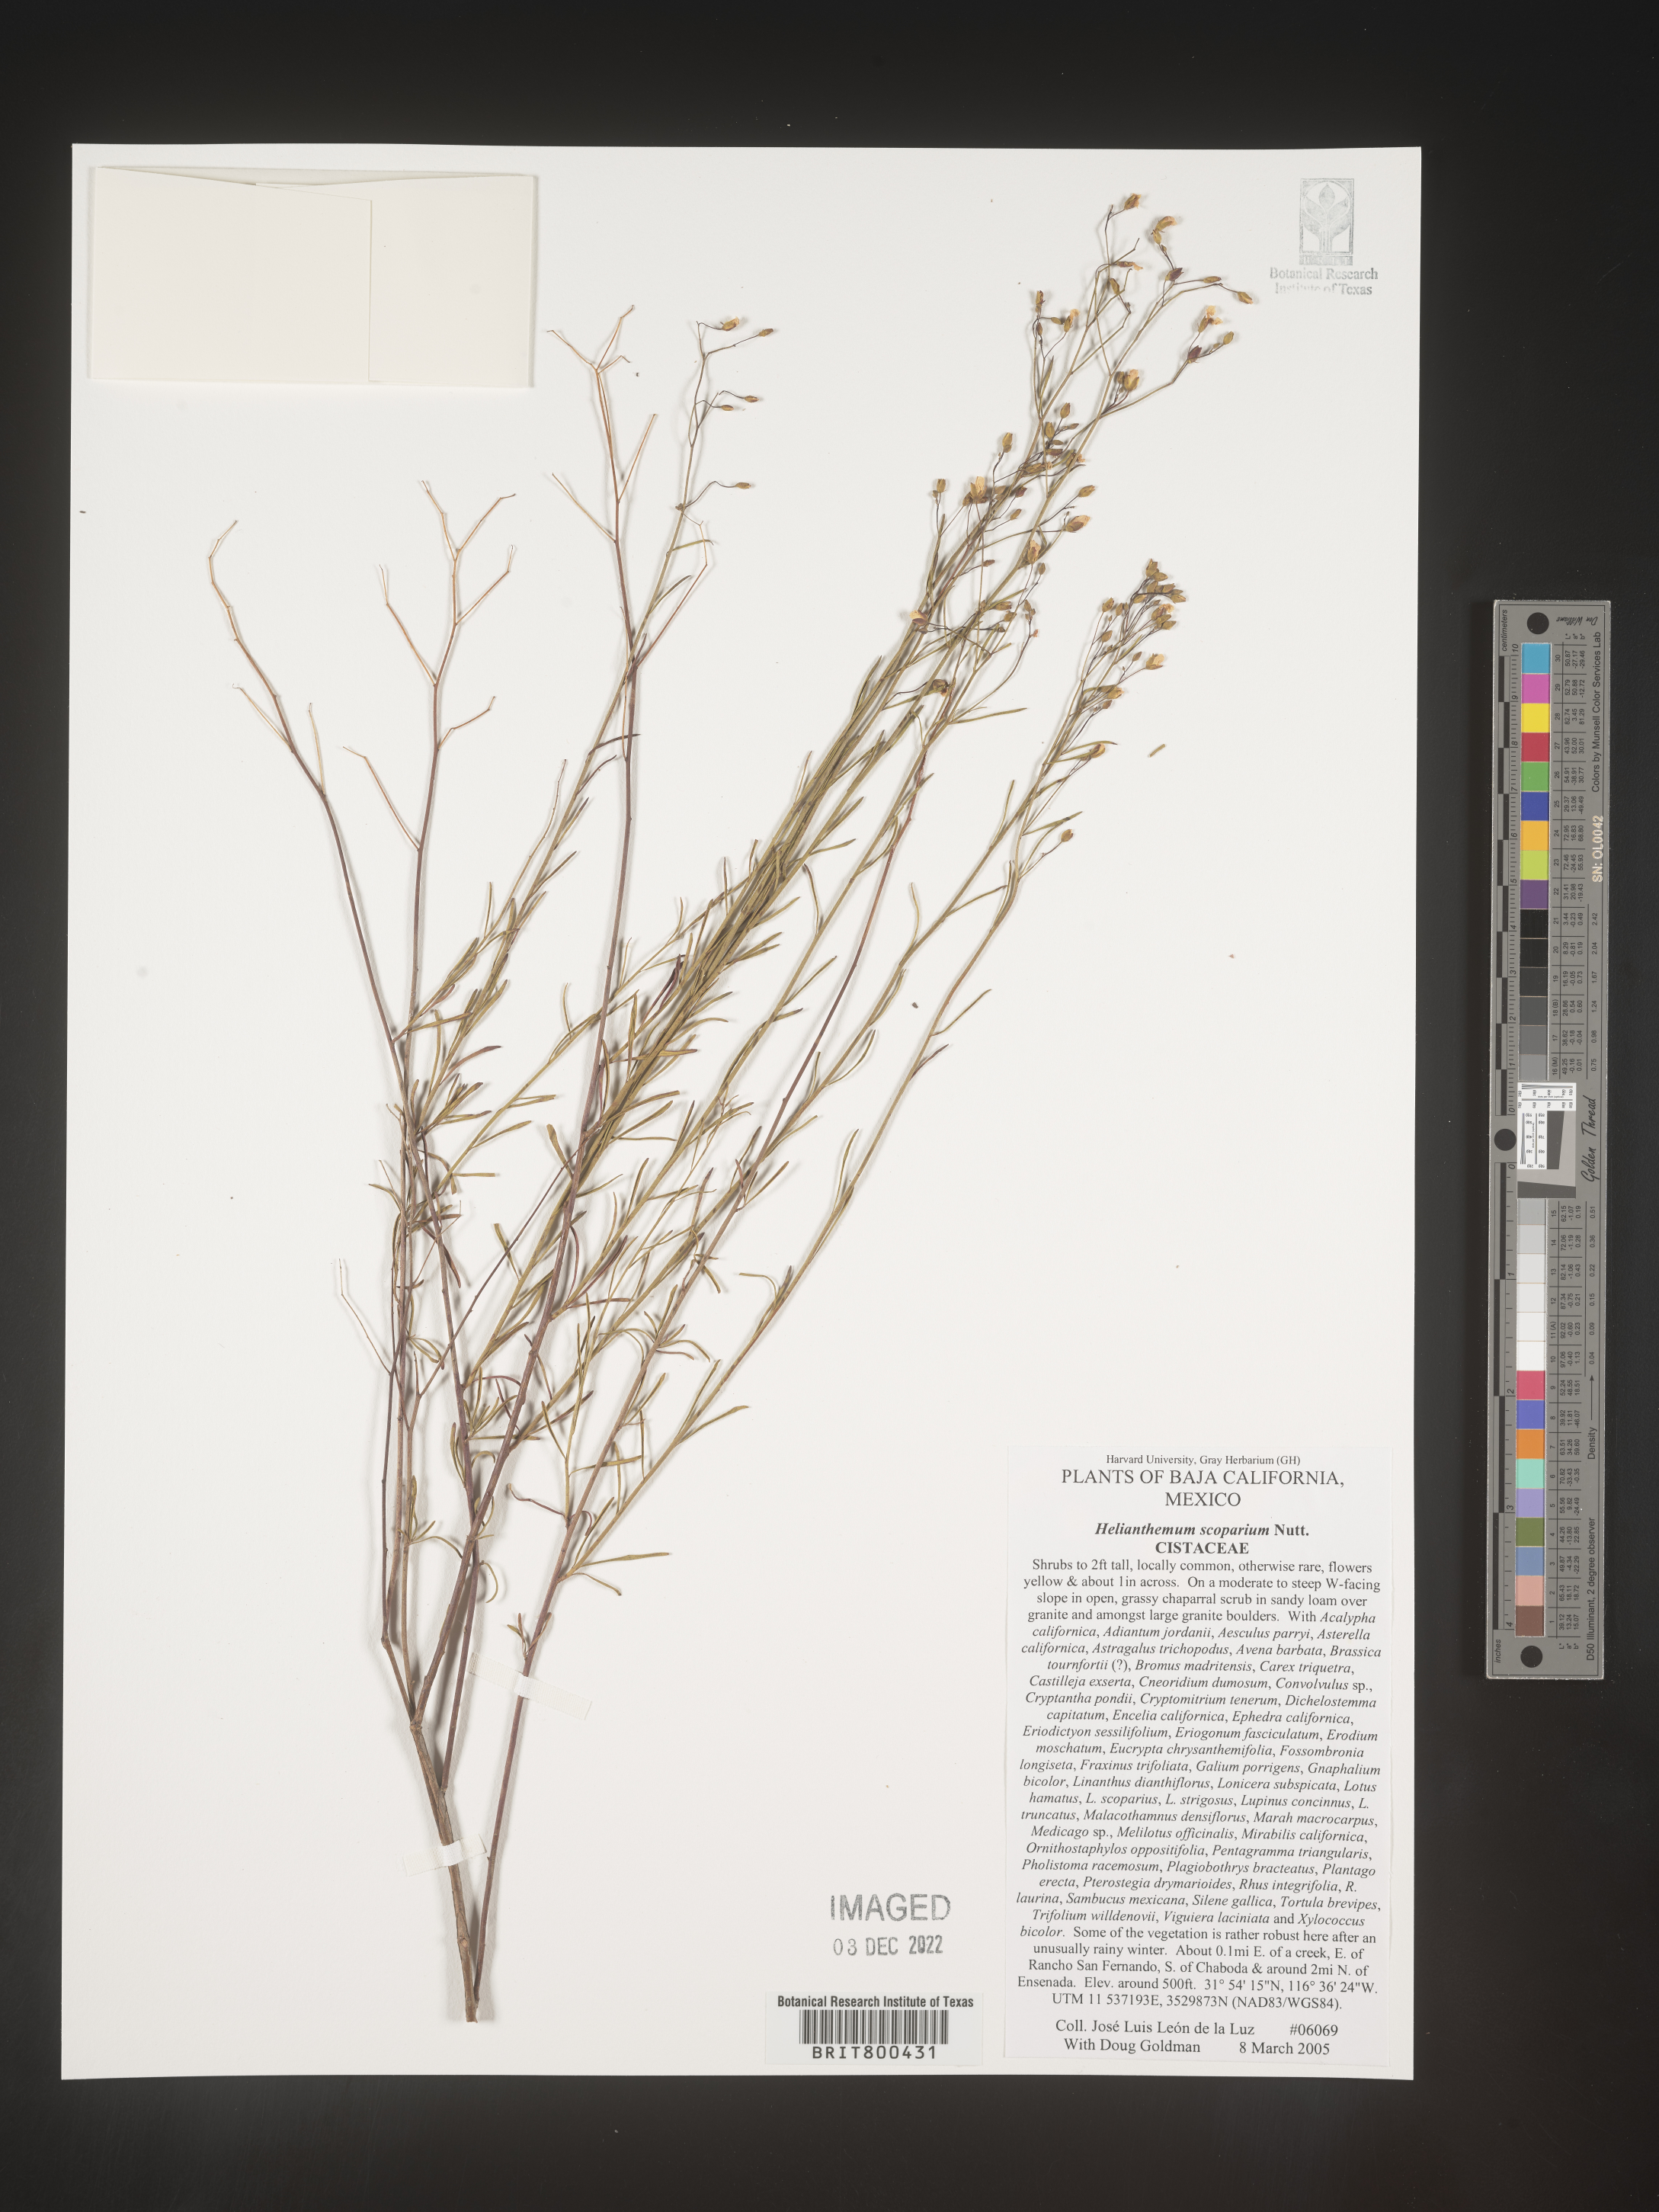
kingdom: Plantae
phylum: Tracheophyta
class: Magnoliopsida
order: Malvales
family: Cistaceae
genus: Helianthemum
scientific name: Helianthemum
